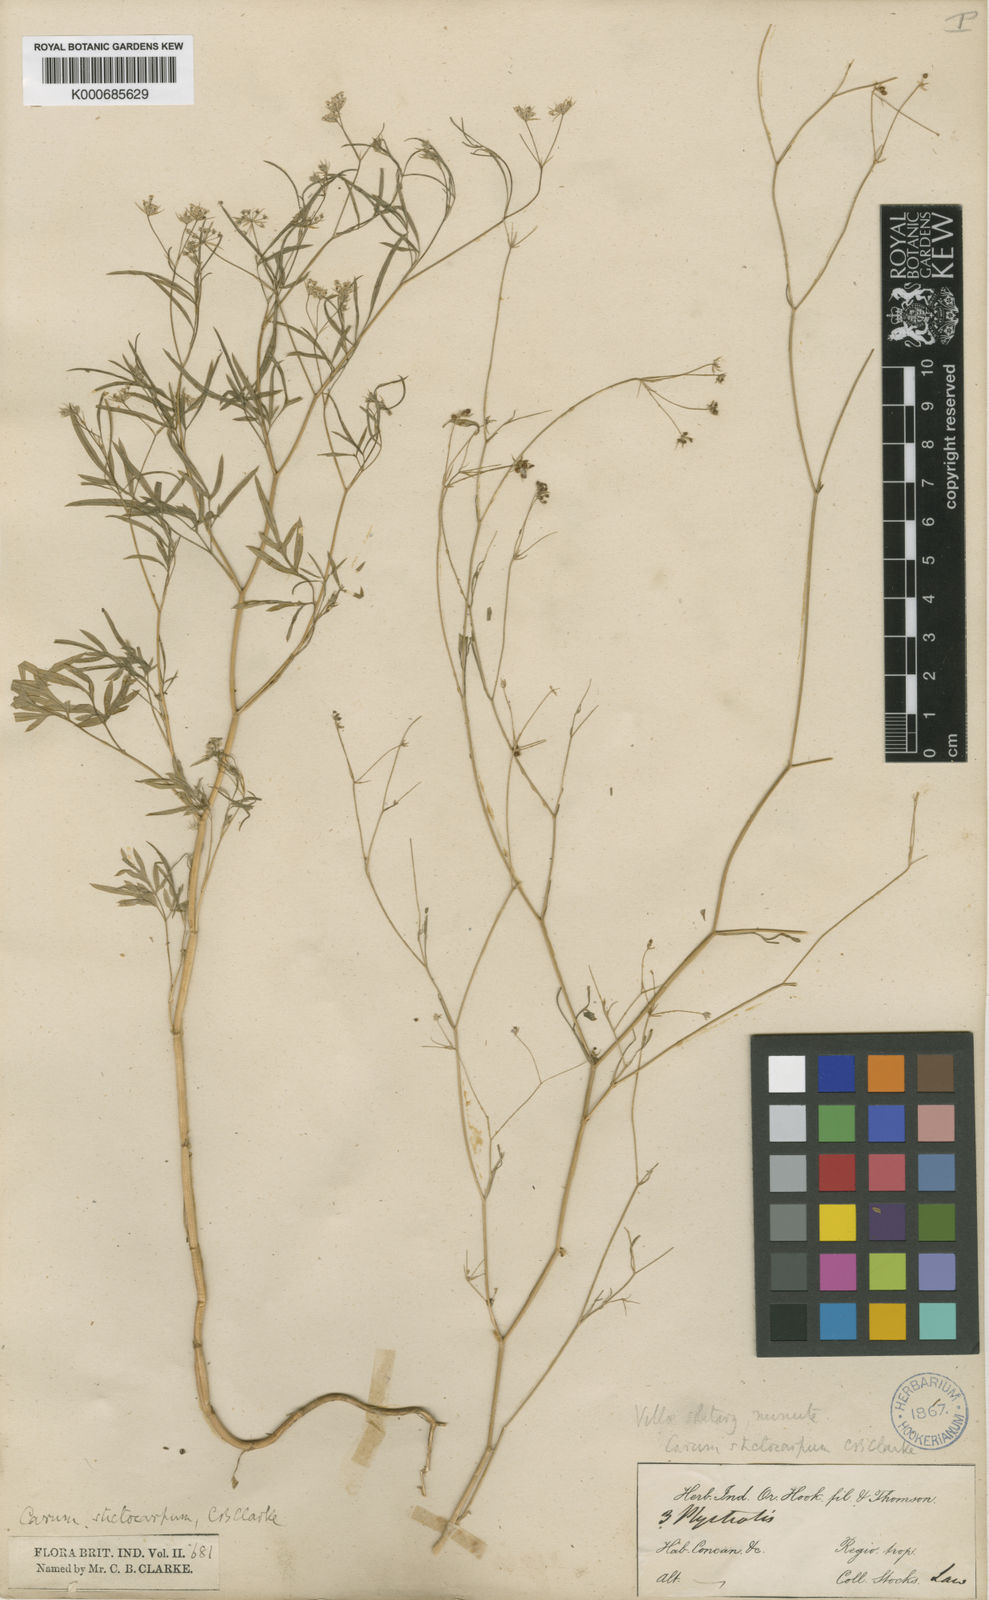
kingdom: Plantae
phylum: Tracheophyta
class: Magnoliopsida
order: Apiales
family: Apiaceae
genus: Psammogeton
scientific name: Psammogeton involucratum
